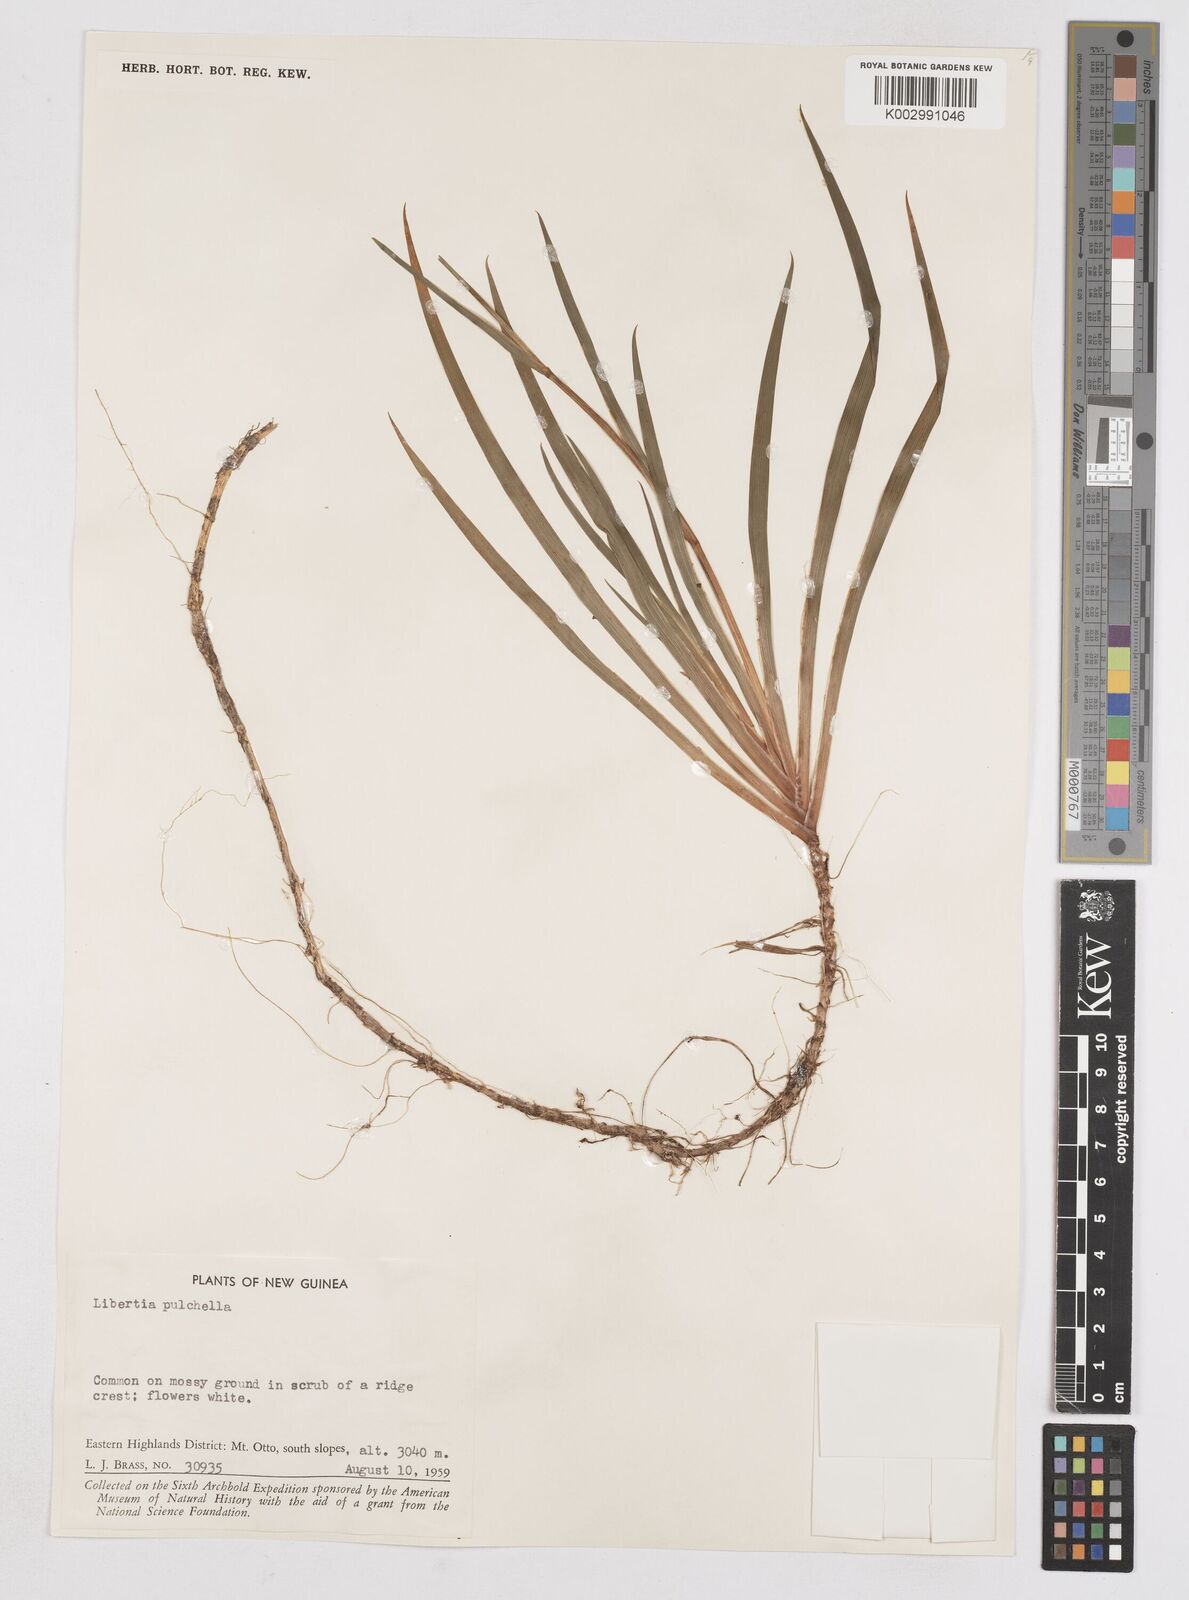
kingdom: Plantae
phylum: Tracheophyta
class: Liliopsida
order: Asparagales
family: Iridaceae
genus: Libertia
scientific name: Libertia pulchella
